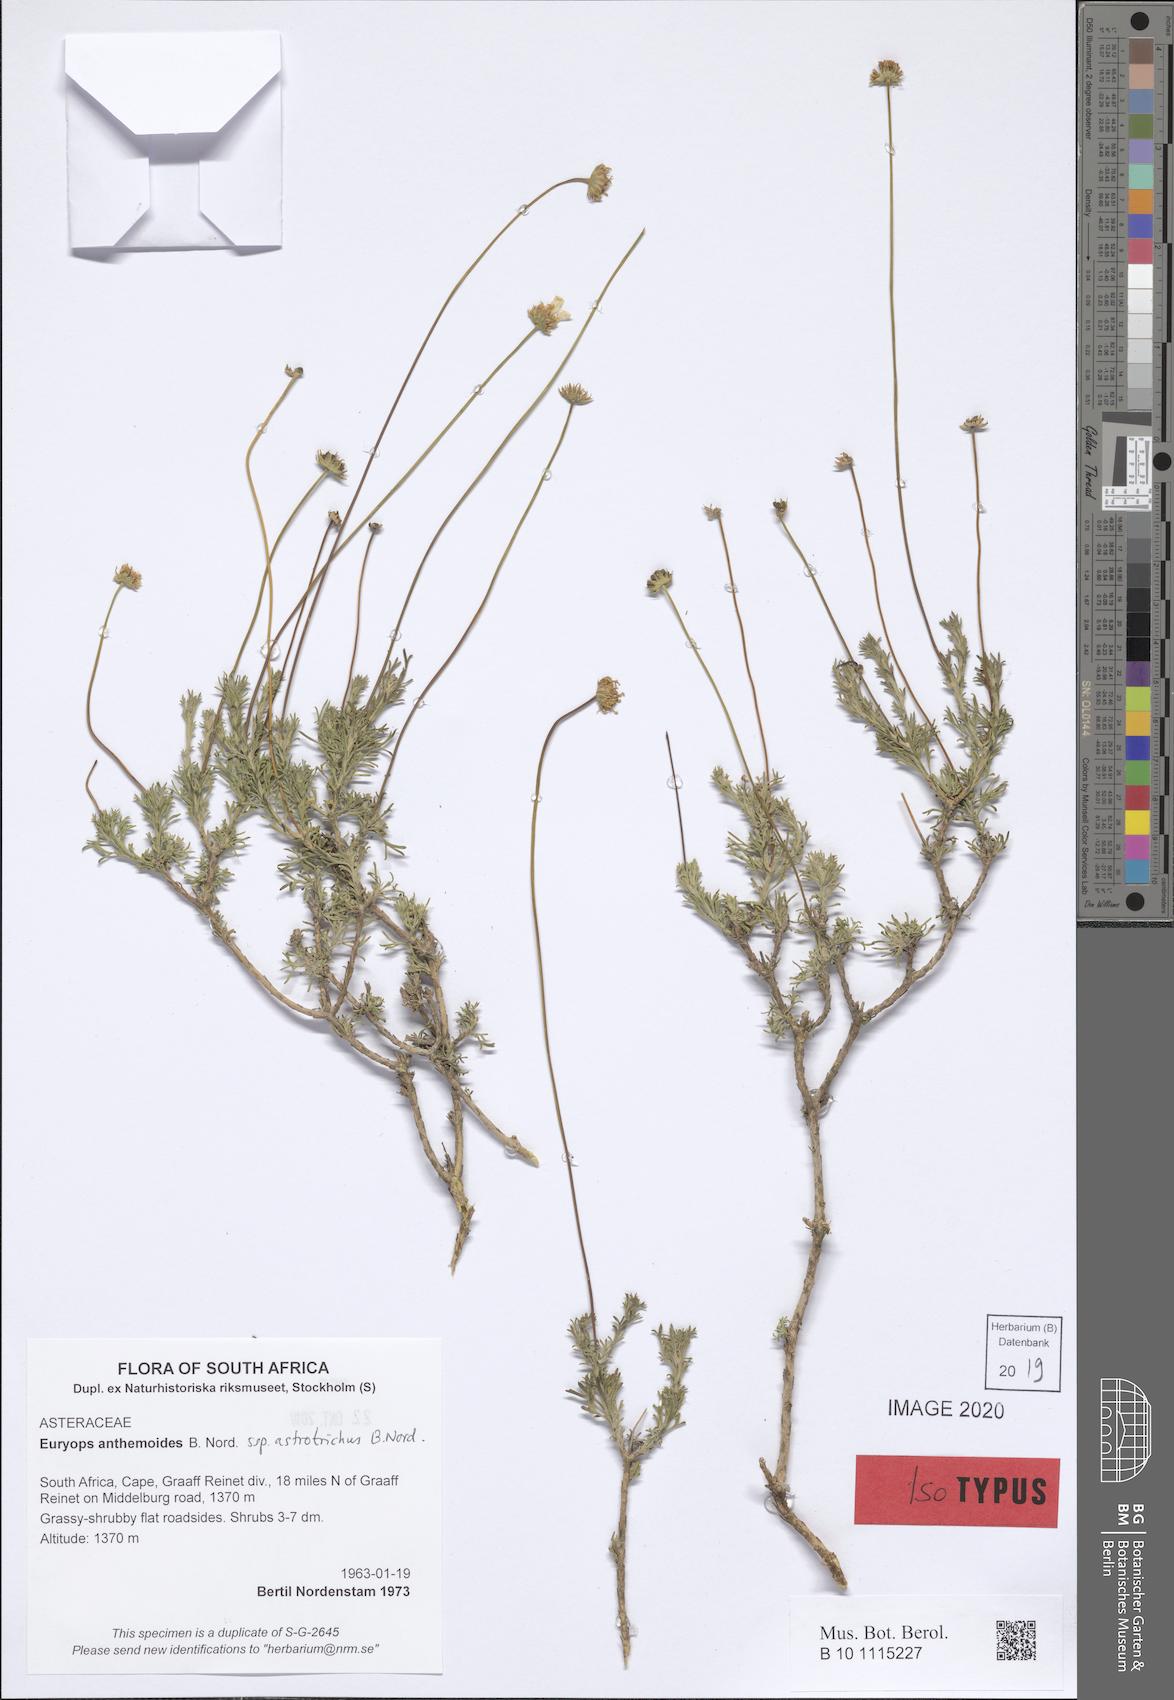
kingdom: Plantae
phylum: Tracheophyta
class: Magnoliopsida
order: Asterales
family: Asteraceae
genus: Euryops
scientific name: Euryops anthemoides
